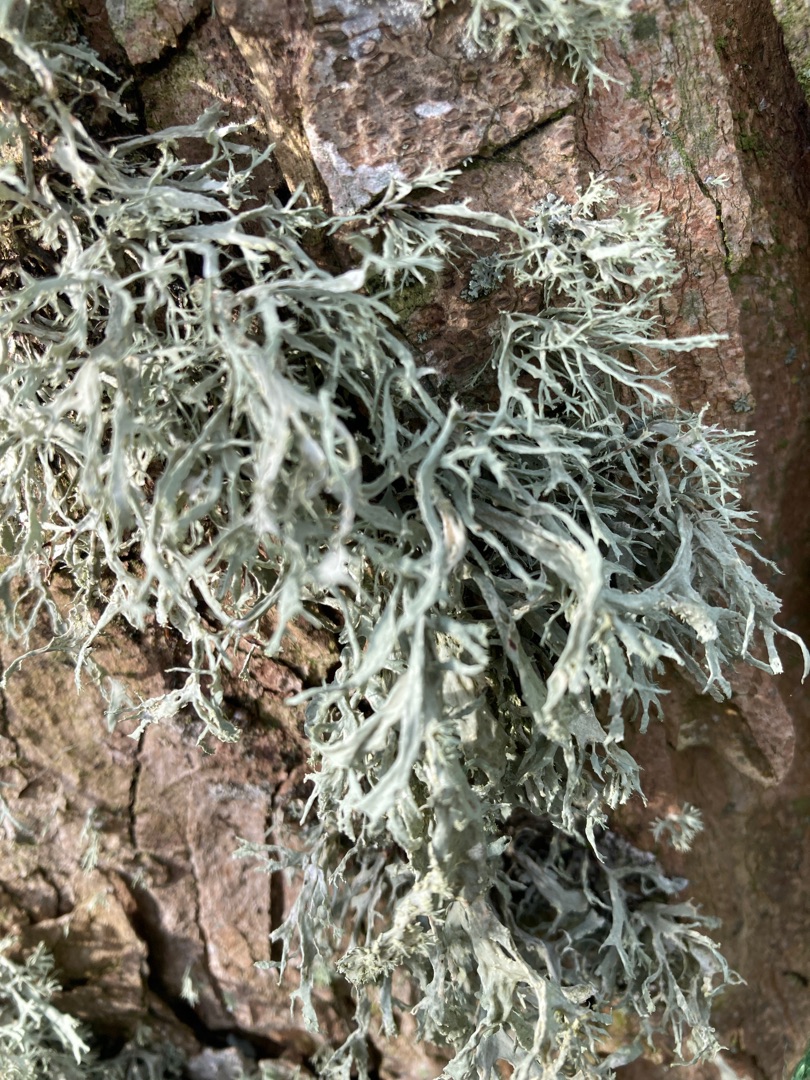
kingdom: Fungi
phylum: Ascomycota
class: Lecanoromycetes
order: Lecanorales
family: Ramalinaceae
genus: Ramalina
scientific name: Ramalina farinacea
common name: Melet grenlav
